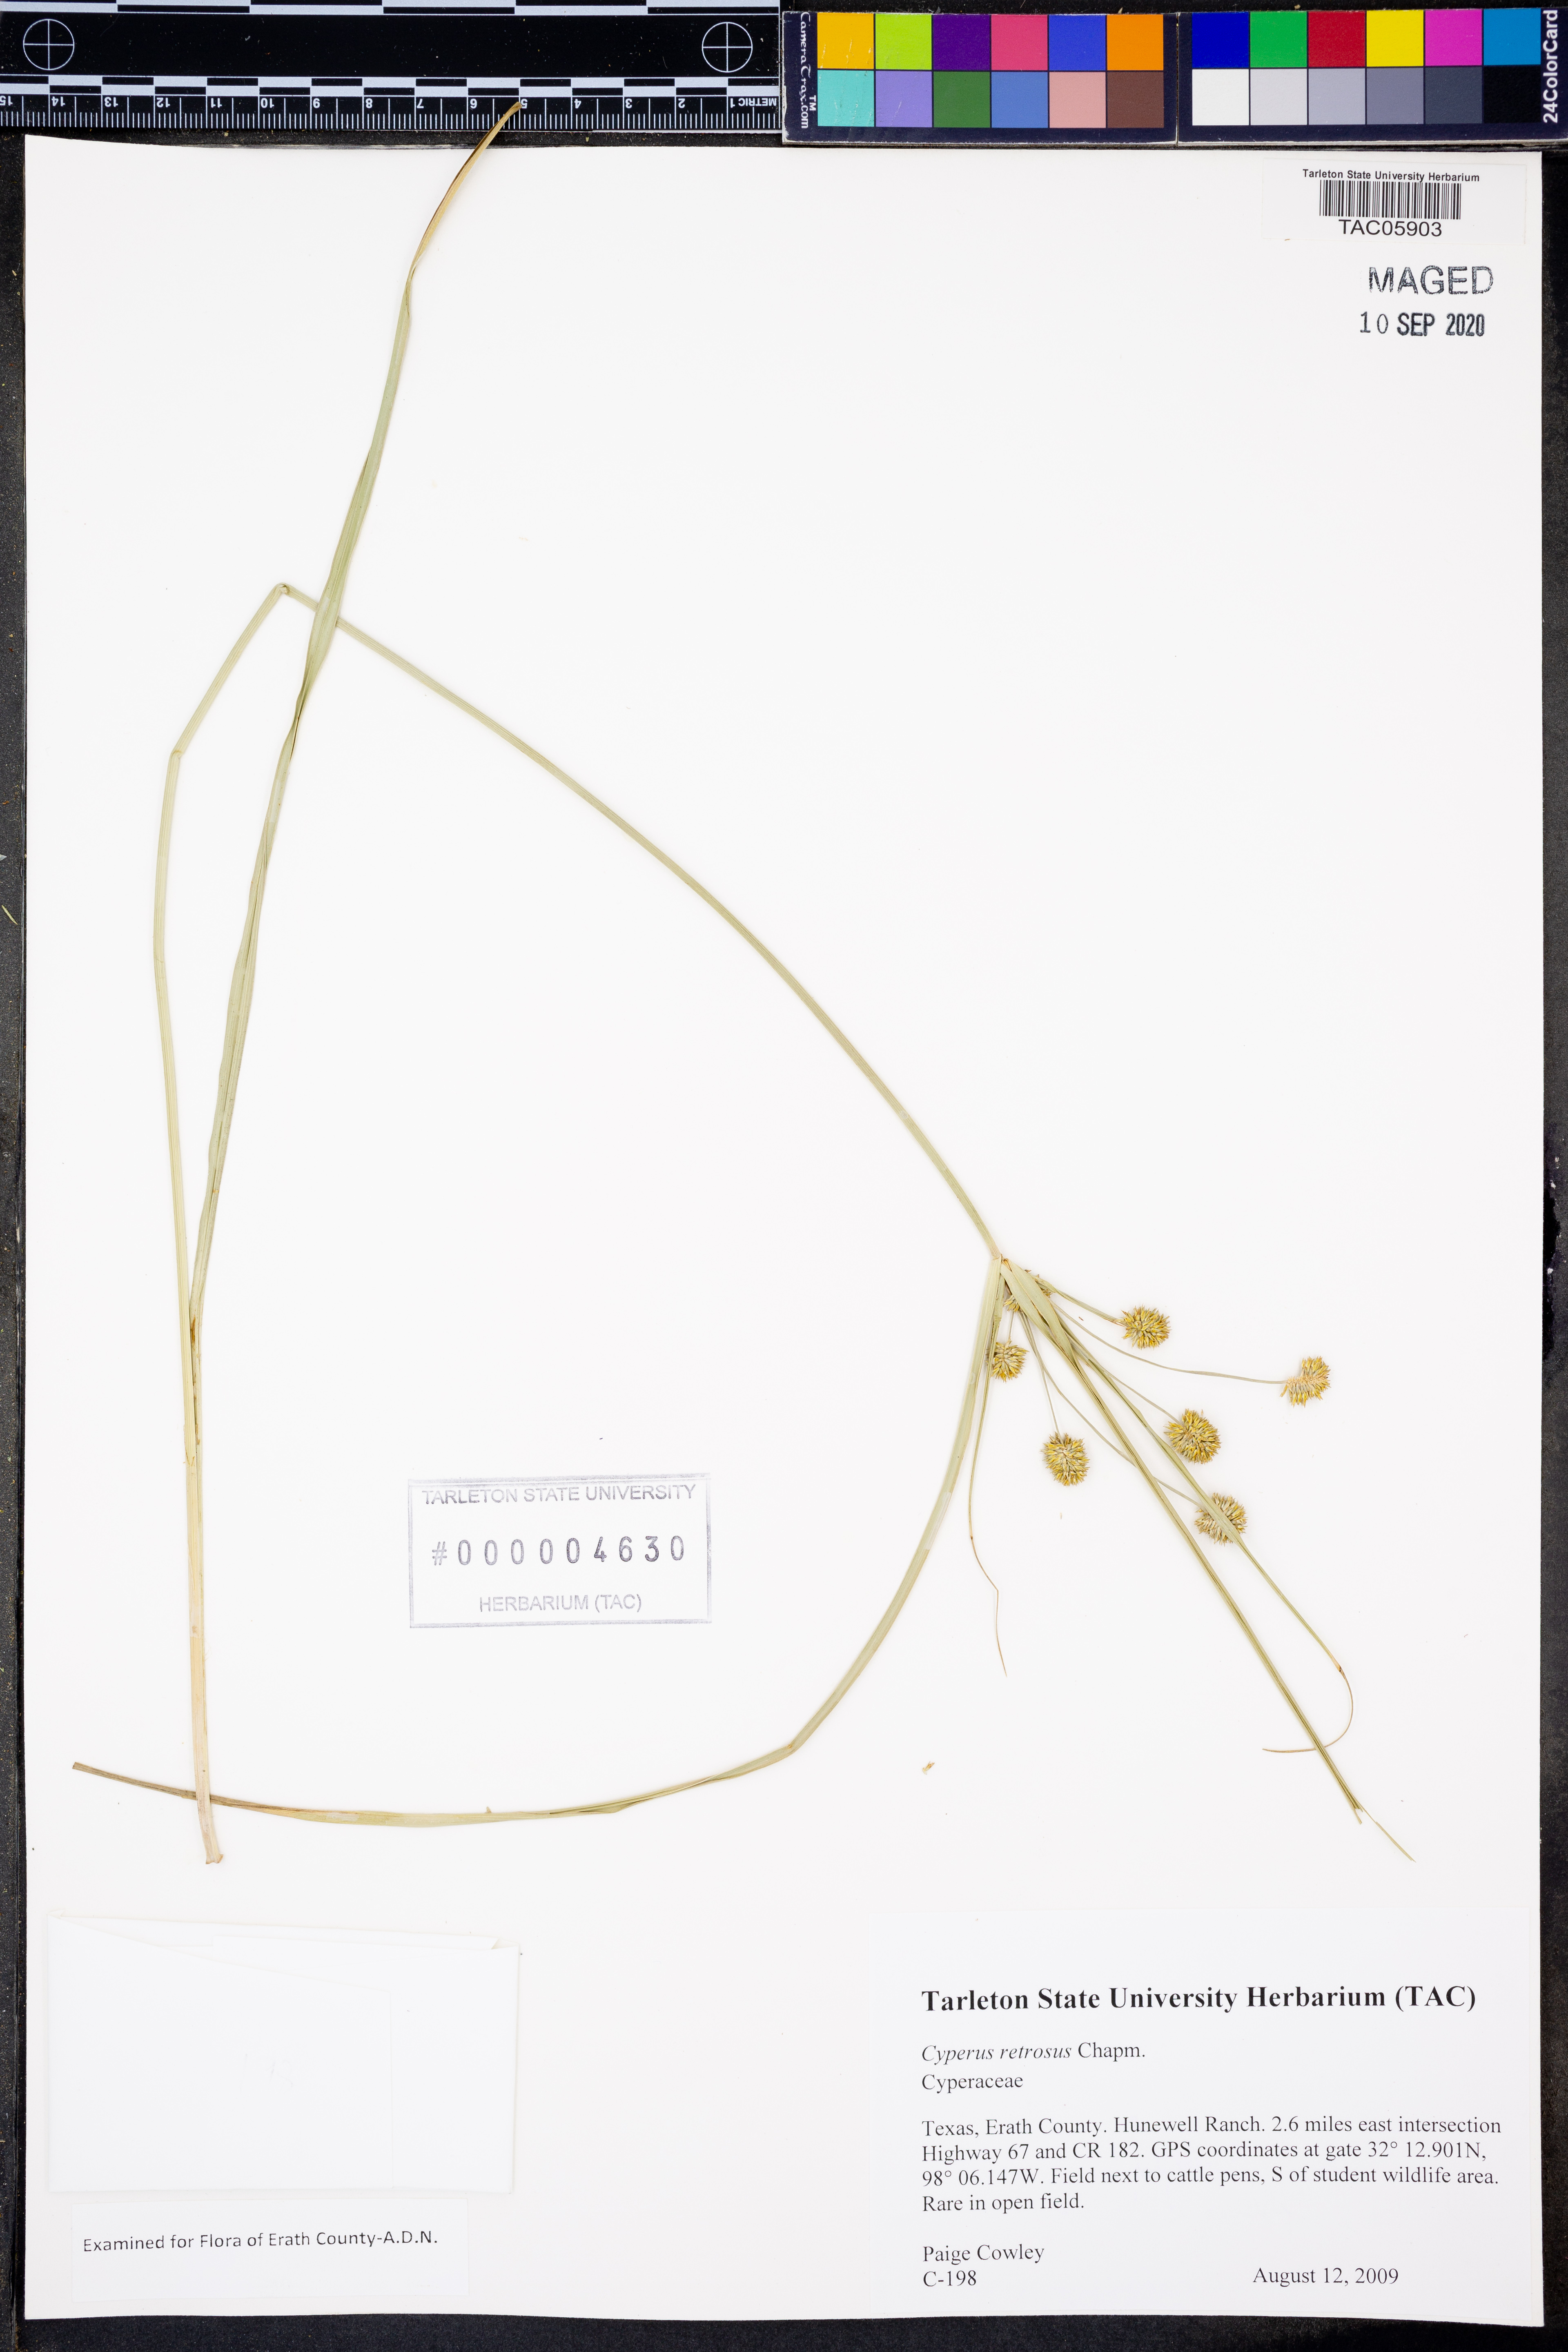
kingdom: Plantae
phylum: Tracheophyta
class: Liliopsida
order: Poales
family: Cyperaceae
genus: Cyperus
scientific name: Cyperus retrorsus
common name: Pinebarren flat sedge
